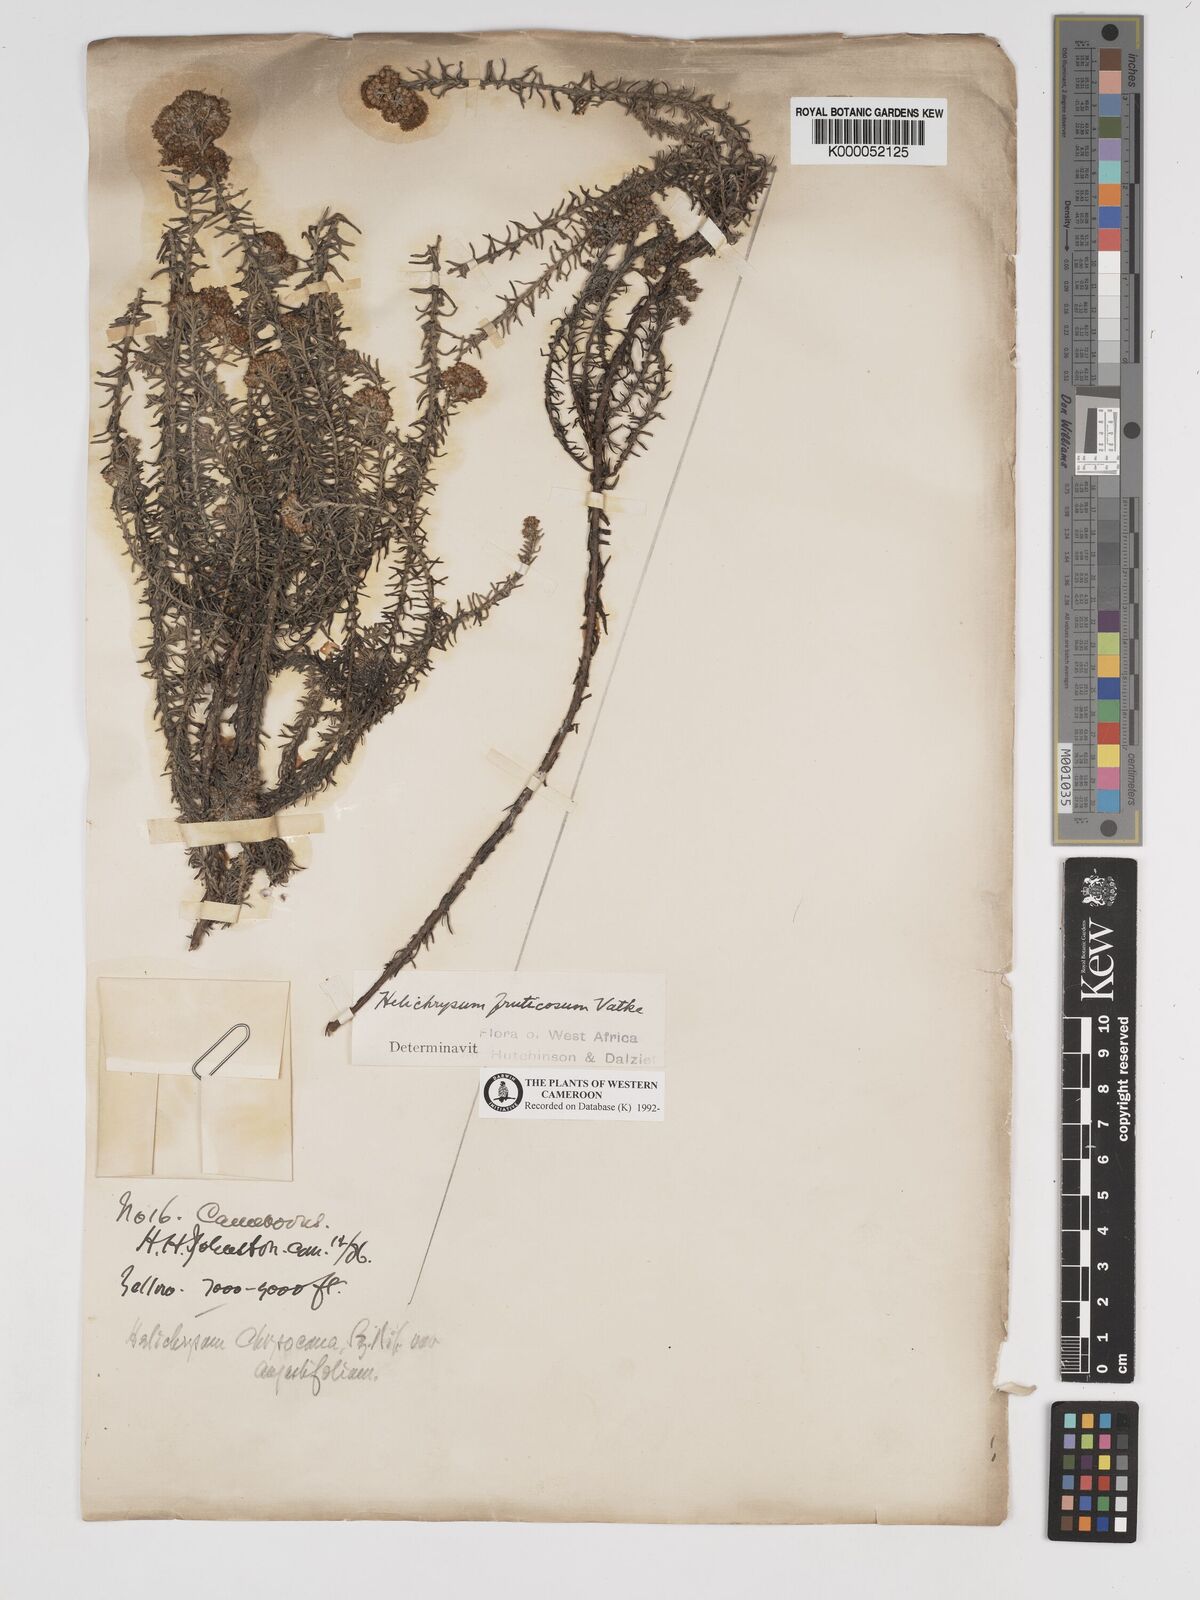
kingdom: Plantae
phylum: Tracheophyta
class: Magnoliopsida
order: Asterales
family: Asteraceae
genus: Helichrysum
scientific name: Helichrysum forskahlii
